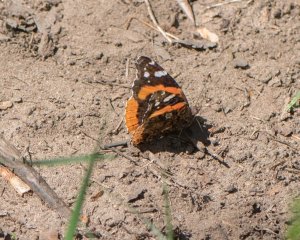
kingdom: Animalia
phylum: Arthropoda
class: Insecta
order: Lepidoptera
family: Nymphalidae
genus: Vanessa
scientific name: Vanessa atalanta
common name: Red Admiral
